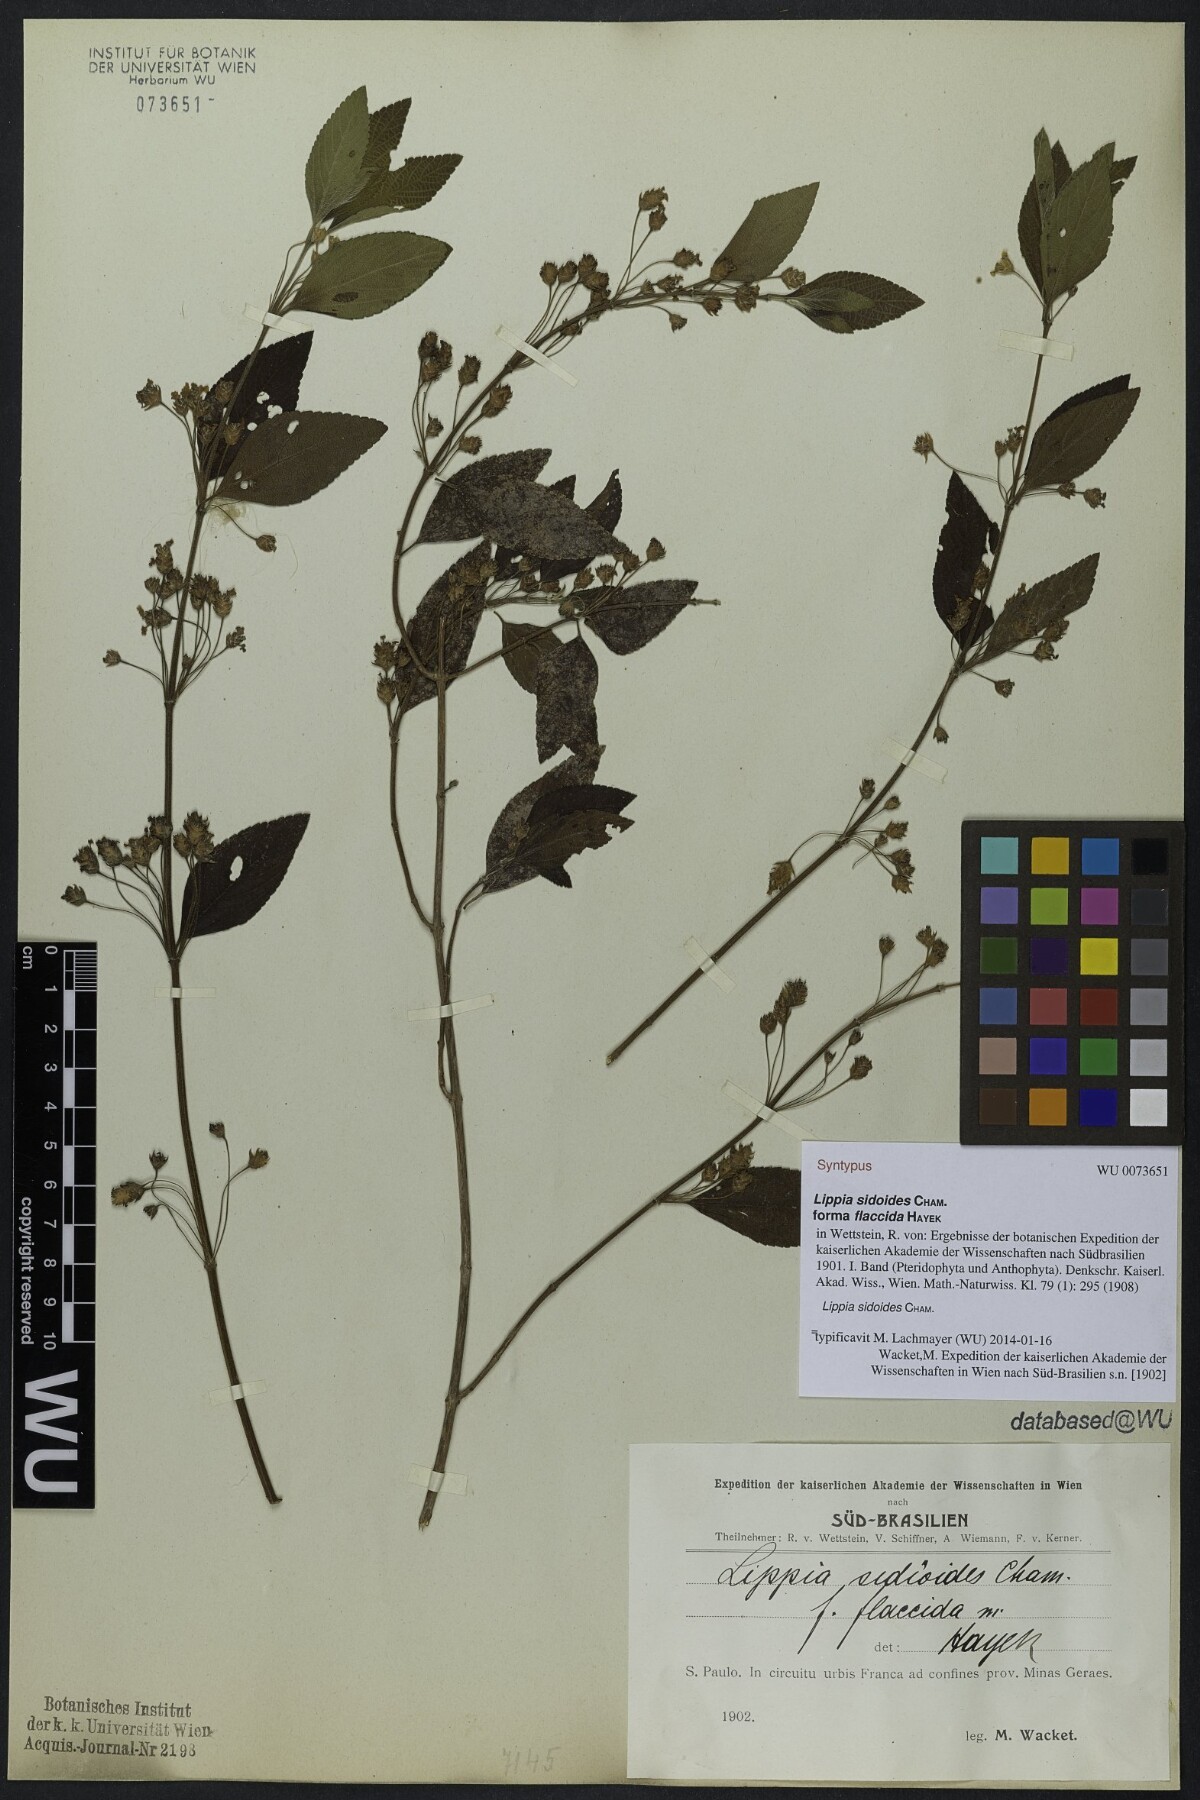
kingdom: Plantae
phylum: Tracheophyta
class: Magnoliopsida
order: Lamiales
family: Verbenaceae
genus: Lippia
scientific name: Lippia origanoides
